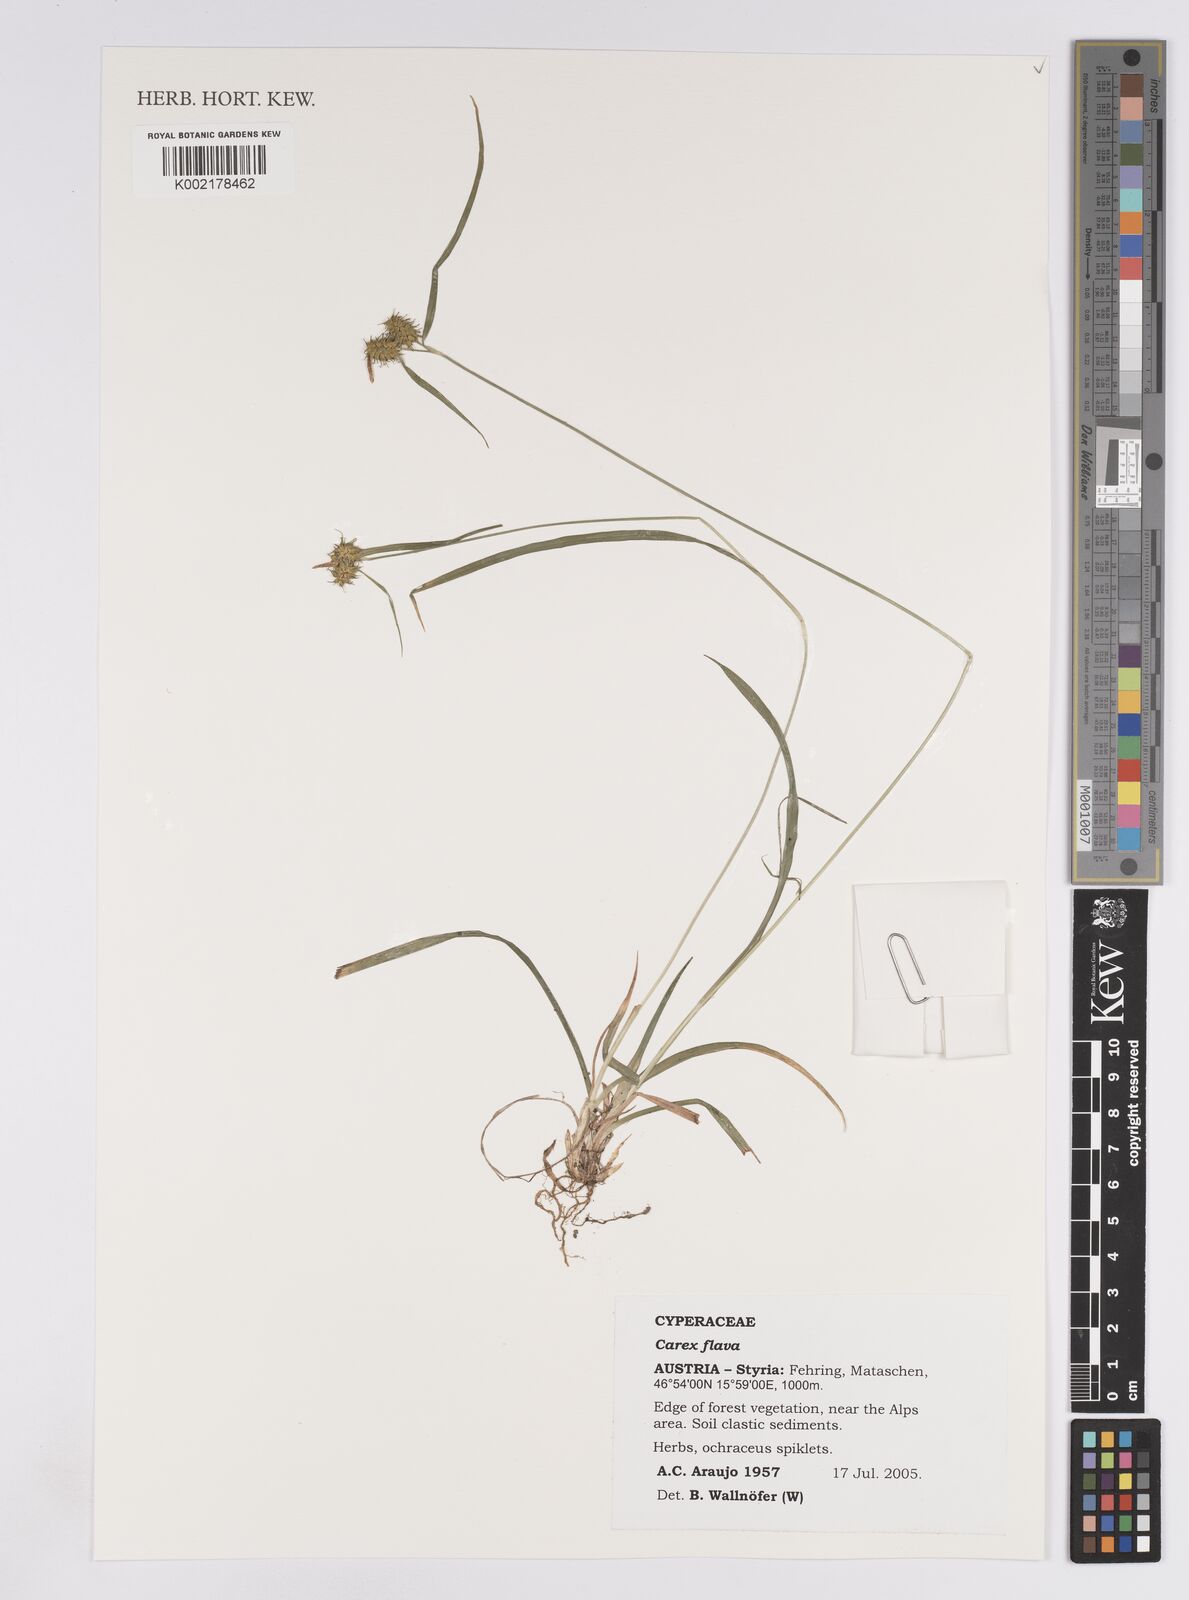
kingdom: Plantae
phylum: Tracheophyta
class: Liliopsida
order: Poales
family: Cyperaceae
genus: Carex
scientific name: Carex demissa
